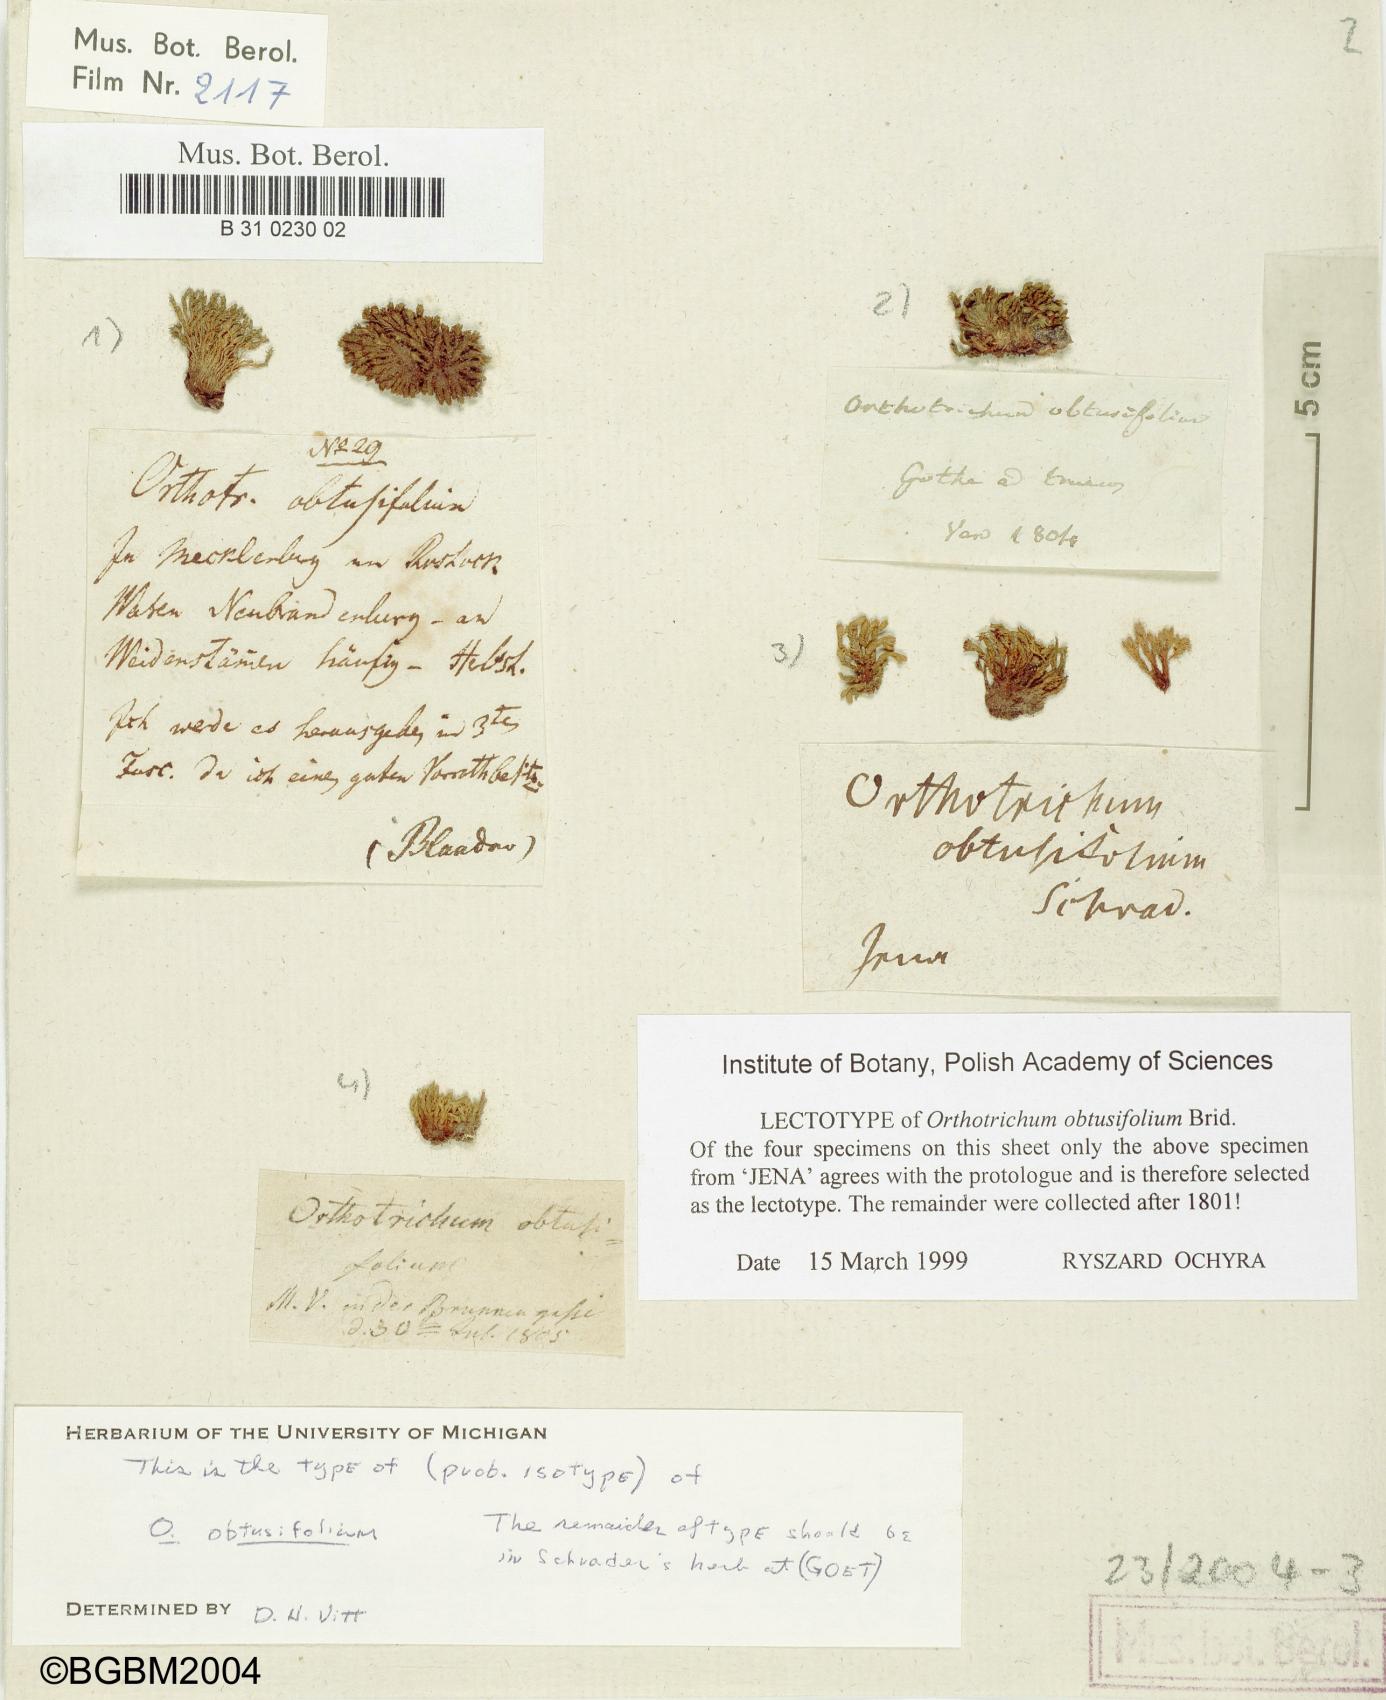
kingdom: Plantae
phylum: Bryophyta
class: Bryopsida
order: Orthotrichales
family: Orthotrichaceae
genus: Nyholmiella
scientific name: Nyholmiella obtusifolia
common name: Blunt-leaved bristle-moss
